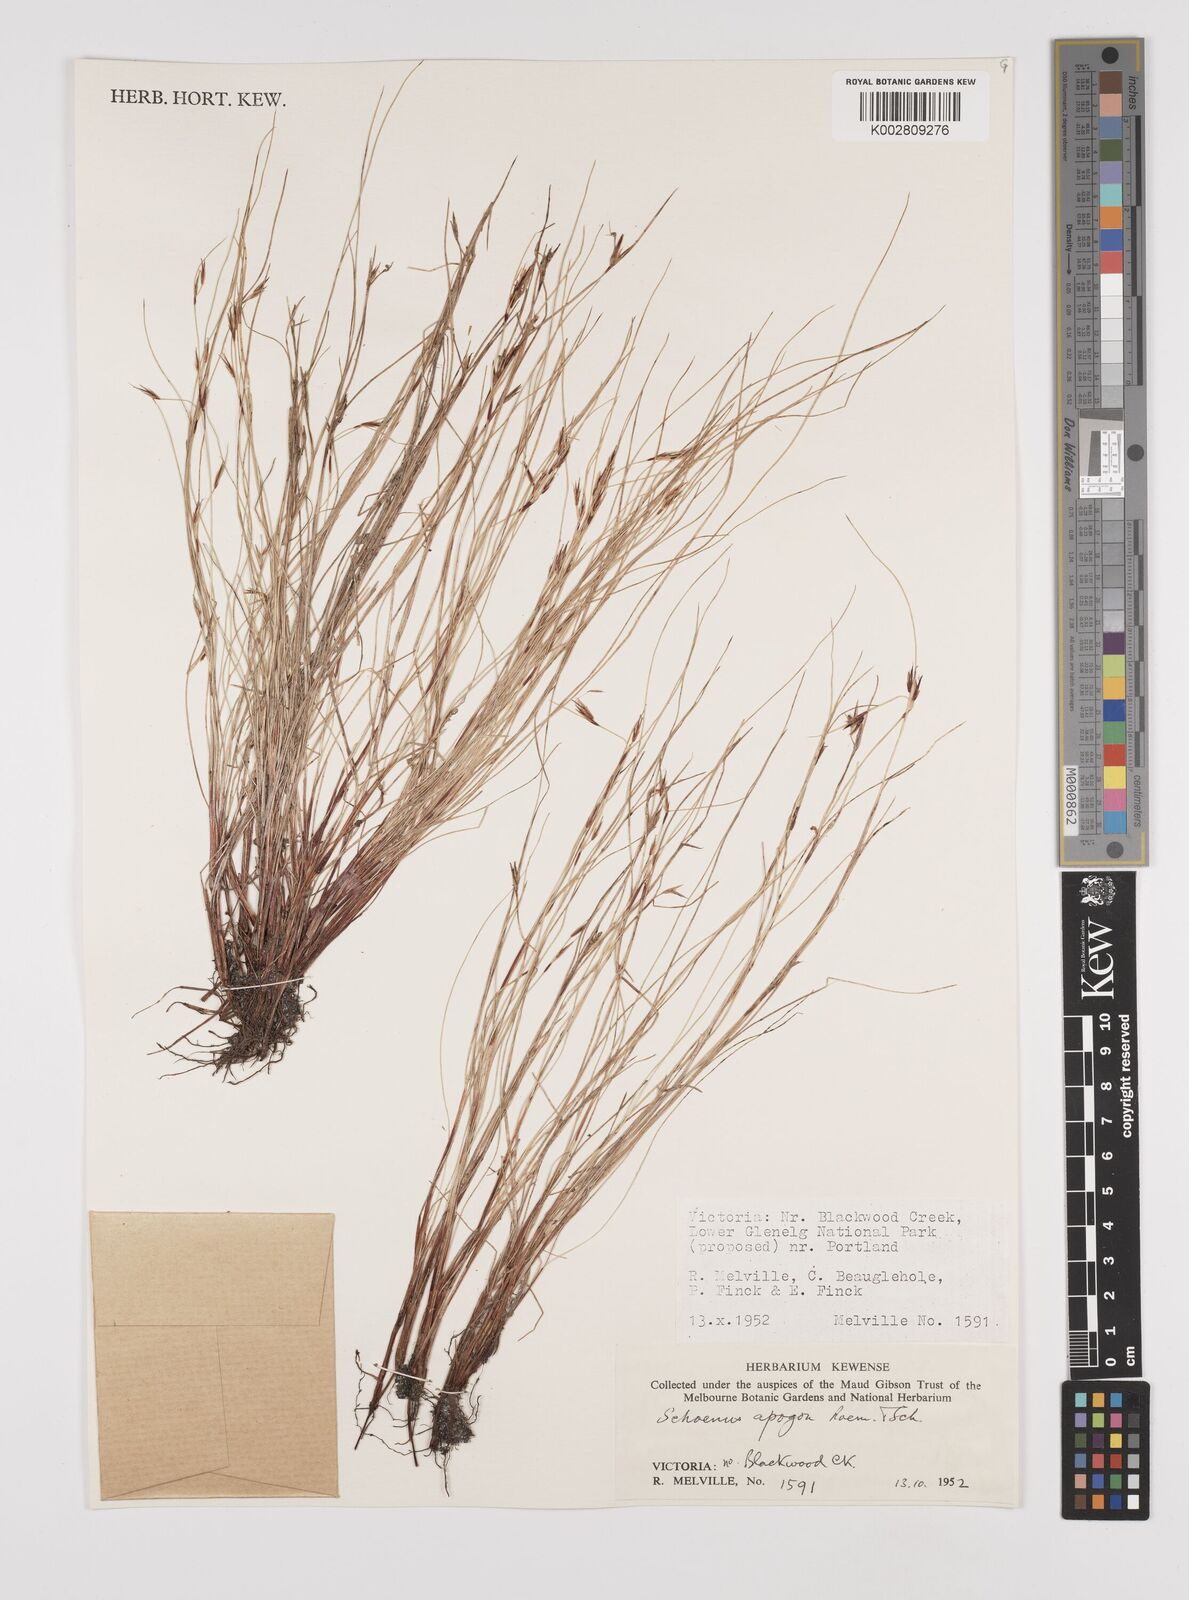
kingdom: Plantae
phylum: Tracheophyta
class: Liliopsida
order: Poales
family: Cyperaceae
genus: Schoenus
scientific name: Schoenus apogon
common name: Smooth bogrush
